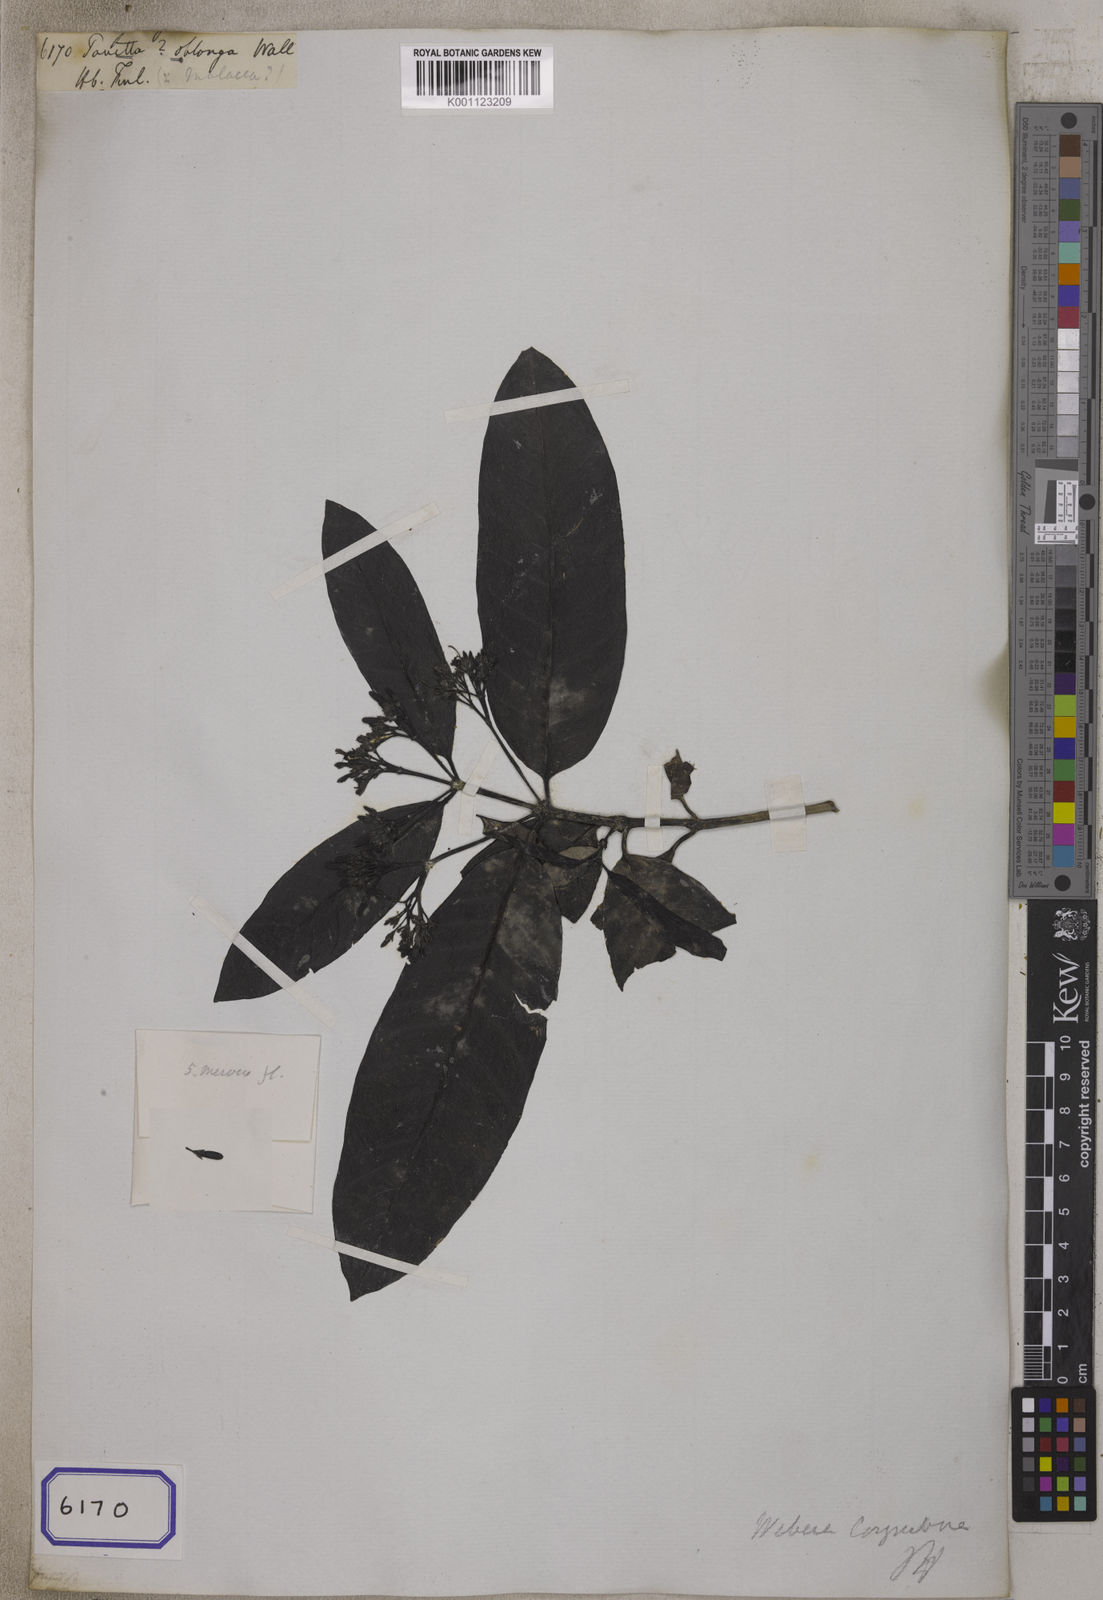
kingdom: Plantae
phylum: Tracheophyta
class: Magnoliopsida
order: Gentianales
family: Rubiaceae
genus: Pavetta
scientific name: Pavetta
